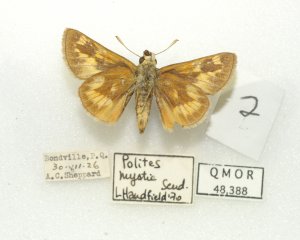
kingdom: Animalia
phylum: Arthropoda
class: Insecta
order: Lepidoptera
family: Hesperiidae
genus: Polites
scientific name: Polites
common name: Long Dash Skipper
